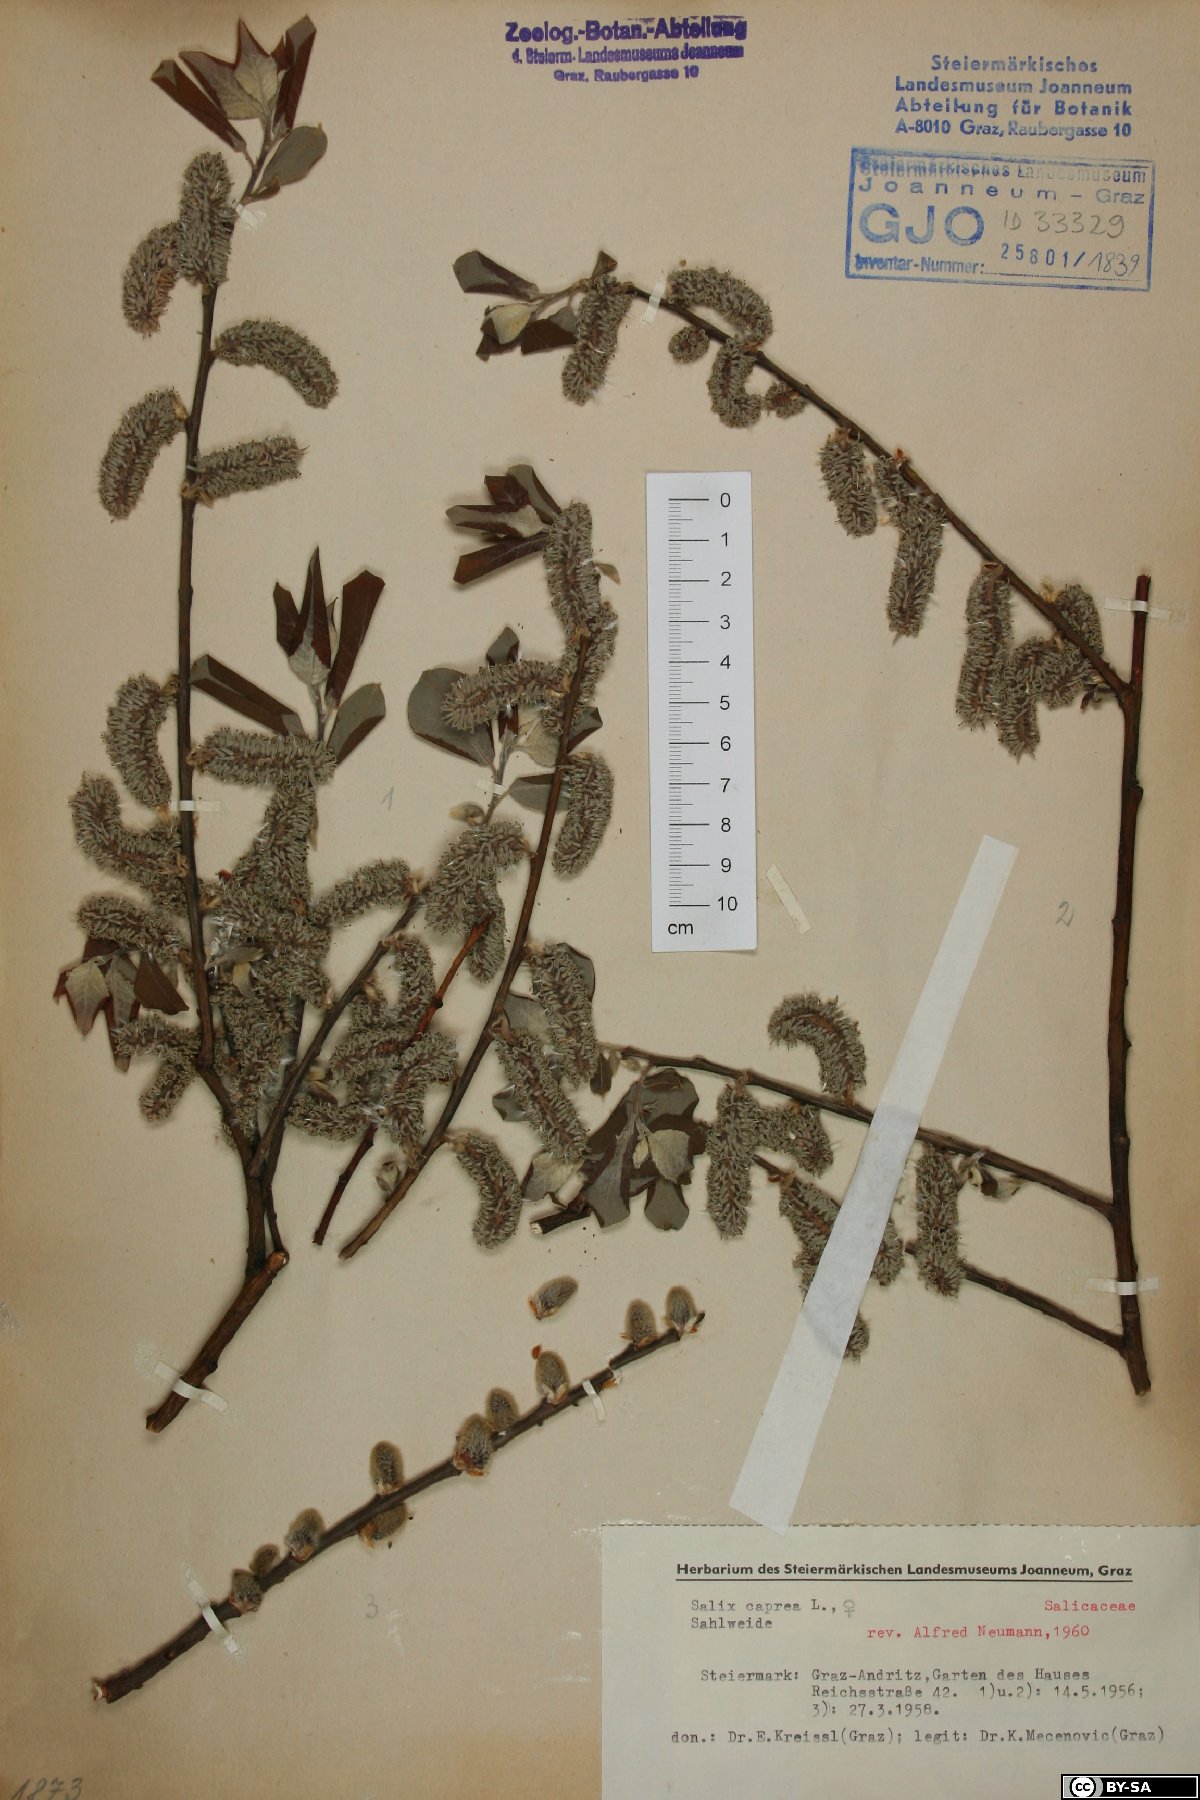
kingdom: Plantae
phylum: Tracheophyta
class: Magnoliopsida
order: Malpighiales
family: Salicaceae
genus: Salix
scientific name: Salix caprea
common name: Goat willow
